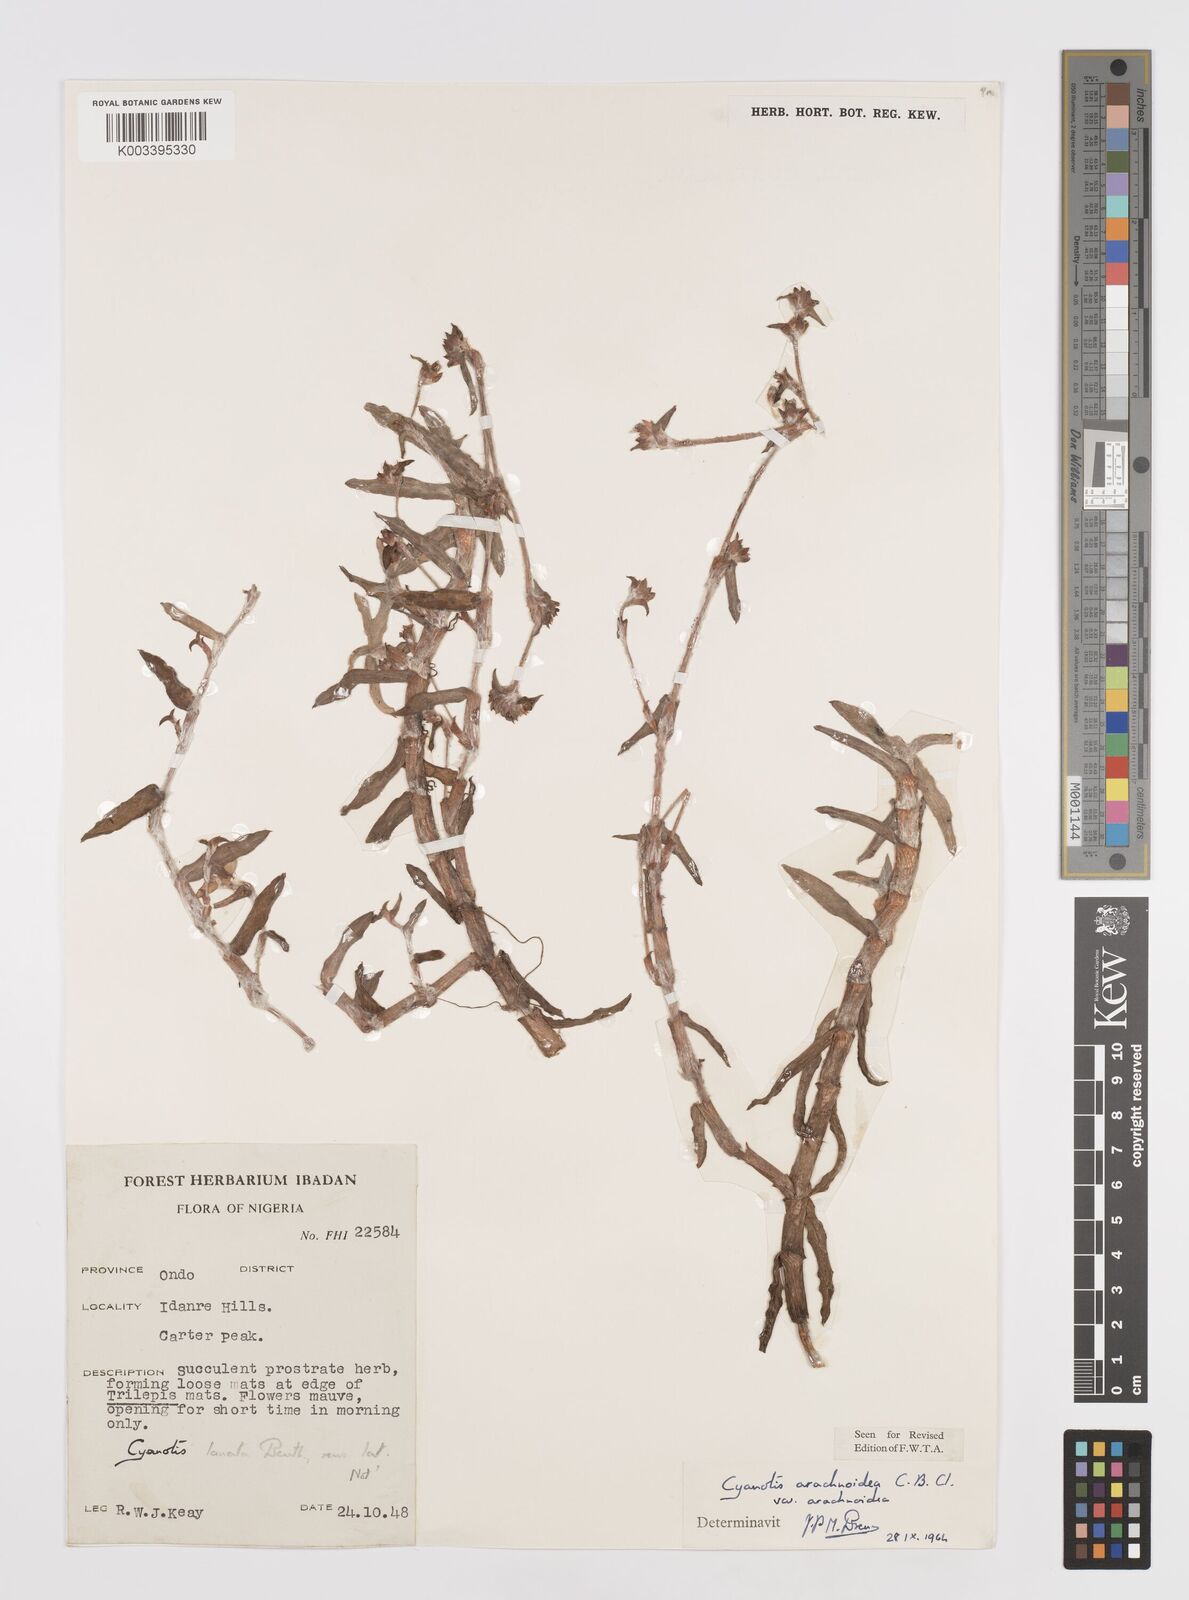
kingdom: Plantae
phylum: Tracheophyta
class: Liliopsida
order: Commelinales
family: Commelinaceae
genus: Cyanotis
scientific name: Cyanotis arachnoidea
